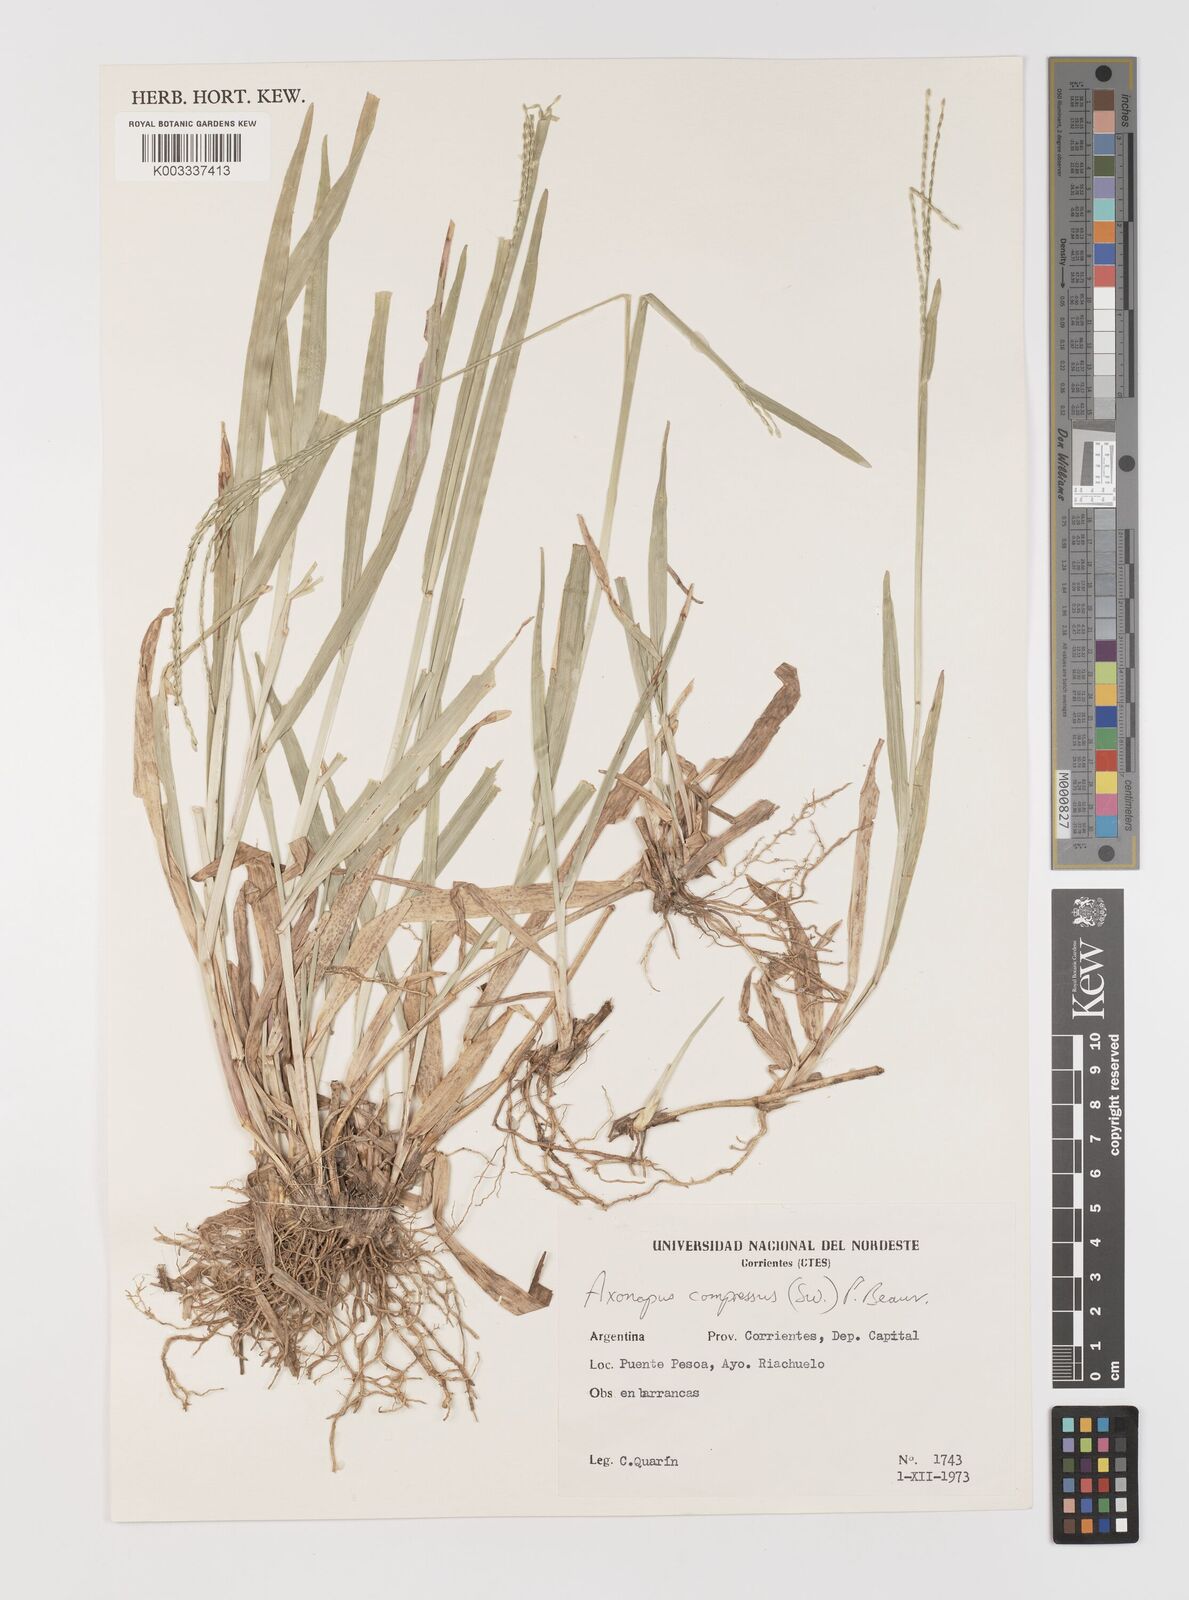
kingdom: Plantae
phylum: Tracheophyta
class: Liliopsida
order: Poales
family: Poaceae
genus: Axonopus
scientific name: Axonopus compressus
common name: American carpet grass
